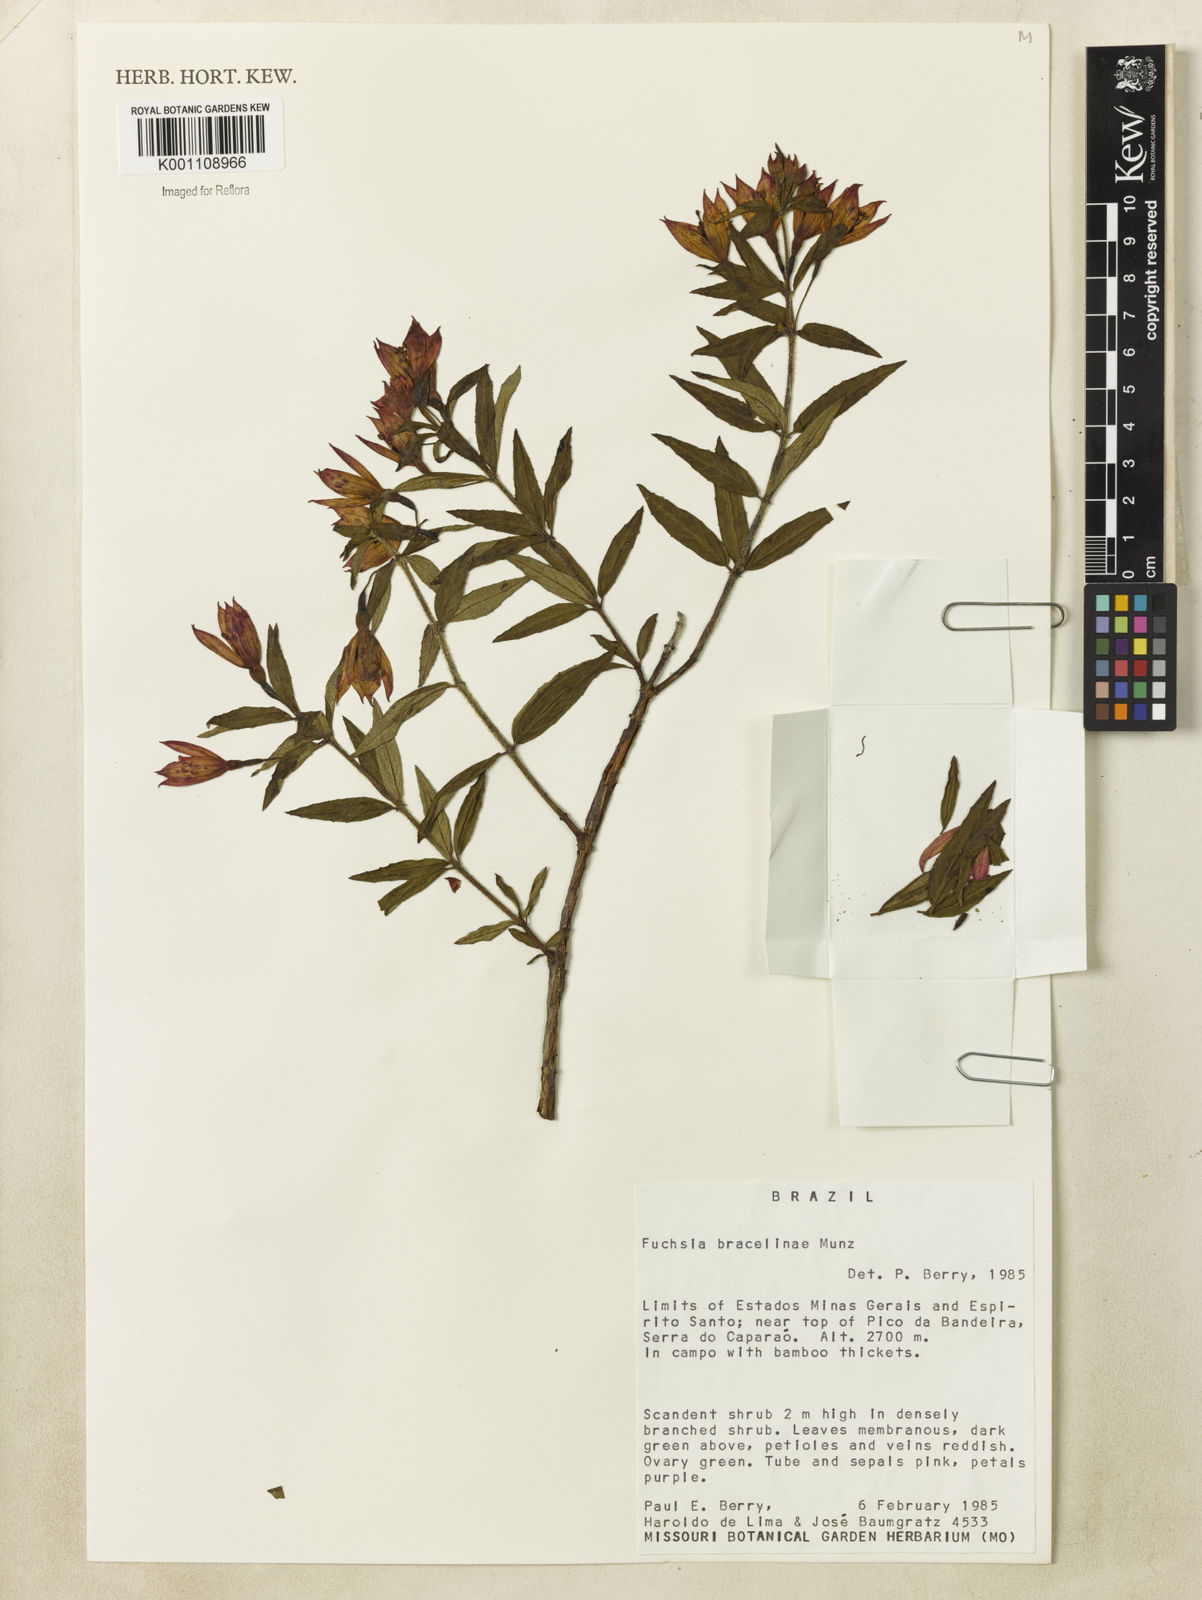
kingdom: Plantae
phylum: Tracheophyta
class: Magnoliopsida
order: Myrtales
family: Onagraceae
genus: Fuchsia
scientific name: Fuchsia bracelinae
